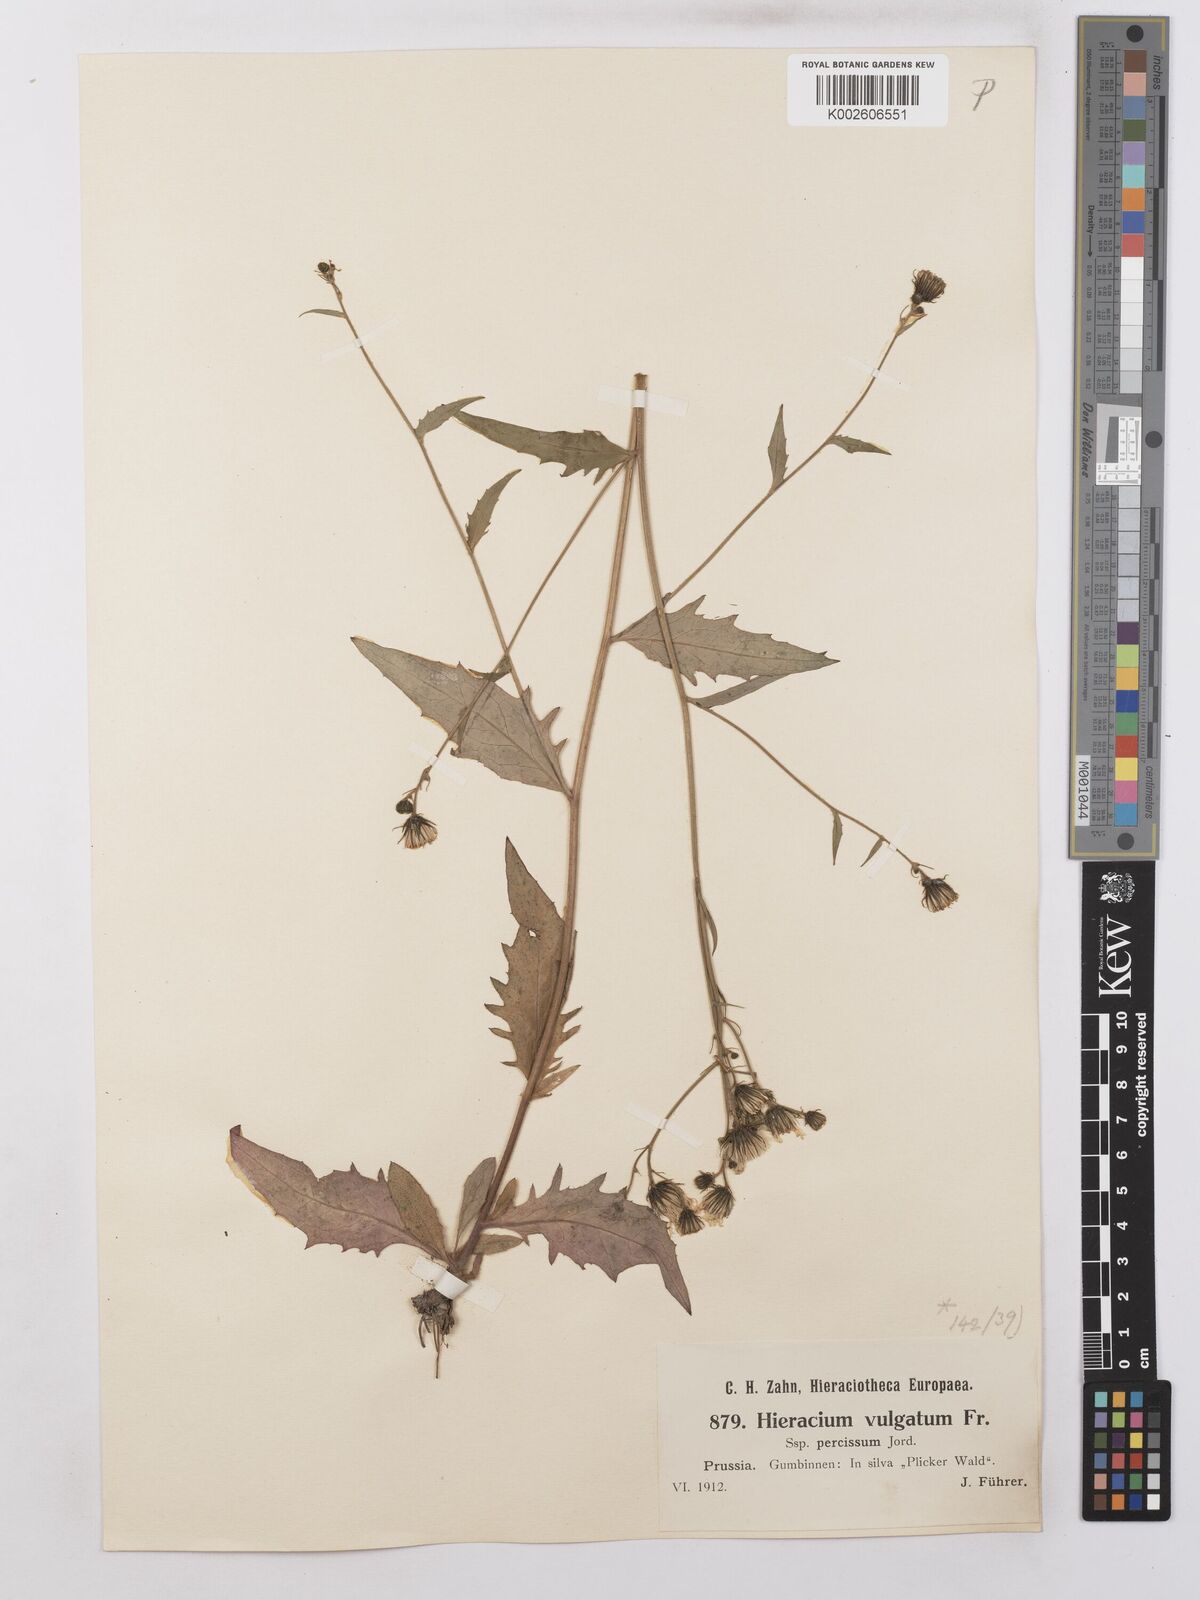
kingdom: Plantae
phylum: Tracheophyta
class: Magnoliopsida
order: Asterales
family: Asteraceae
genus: Hieracium
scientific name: Hieracium lachenalii
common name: Common hawkweed
